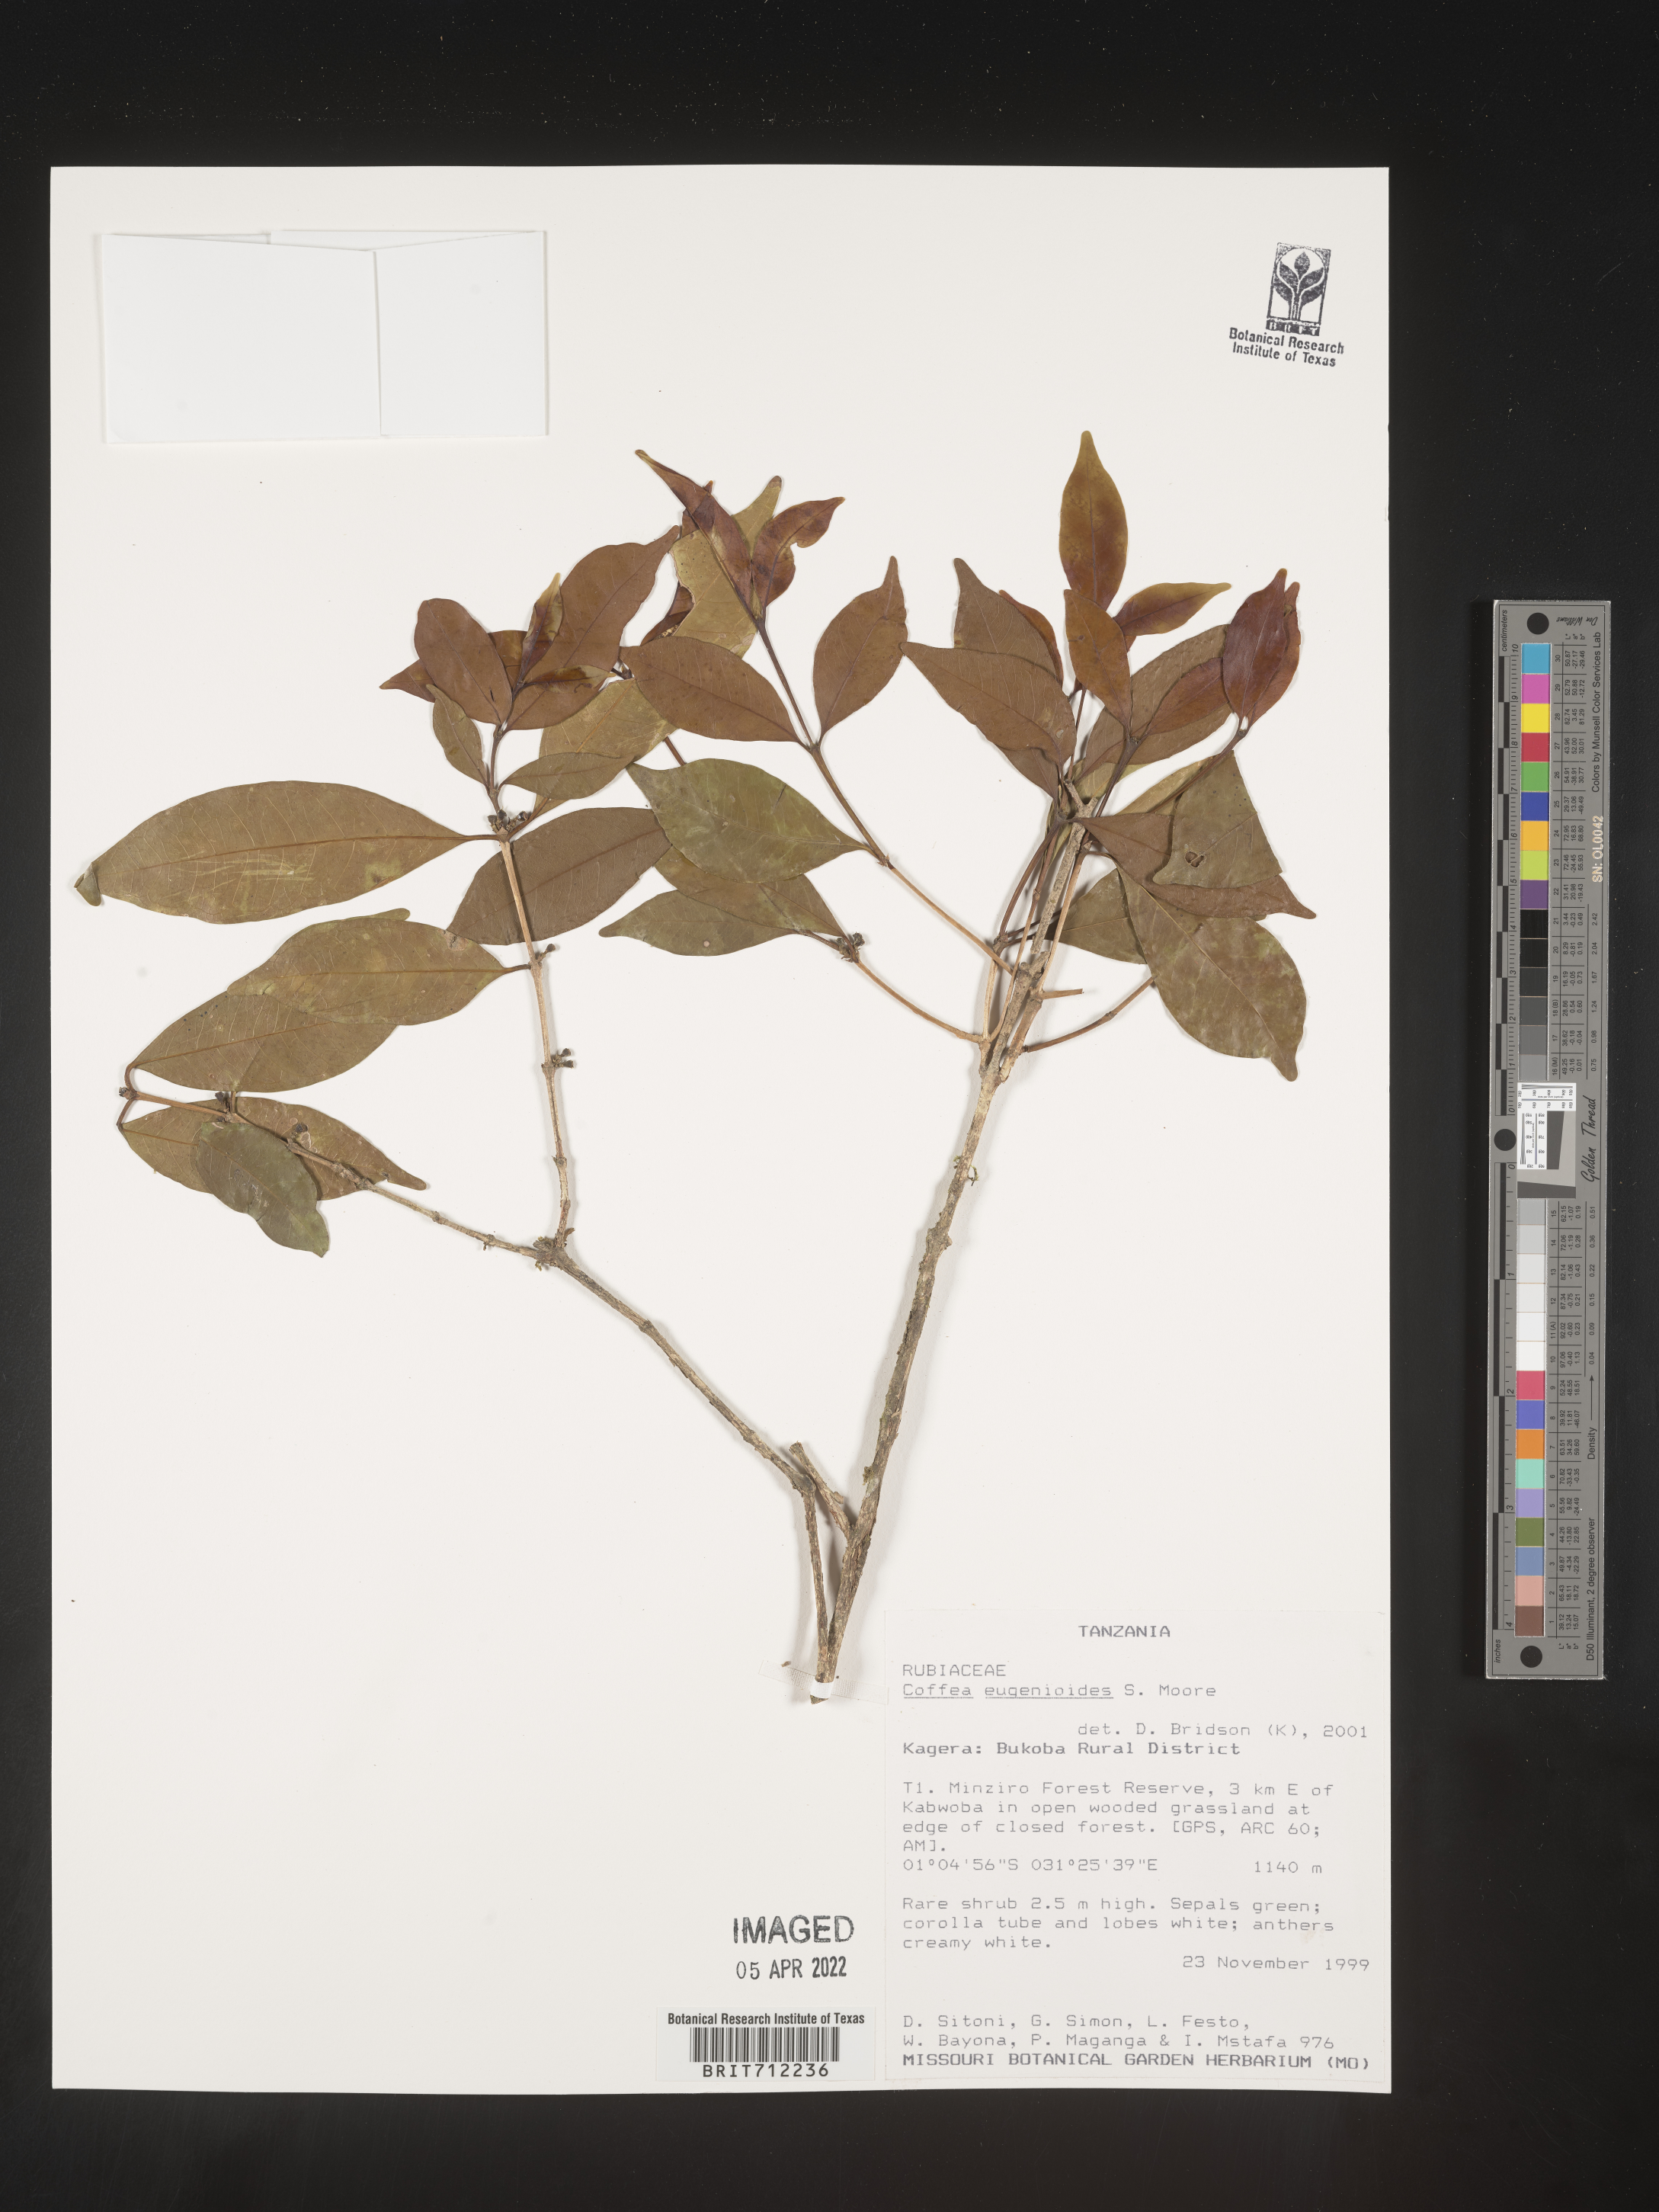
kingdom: Plantae
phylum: Tracheophyta
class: Magnoliopsida
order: Gentianales
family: Rubiaceae
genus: Coffea
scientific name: Coffea
